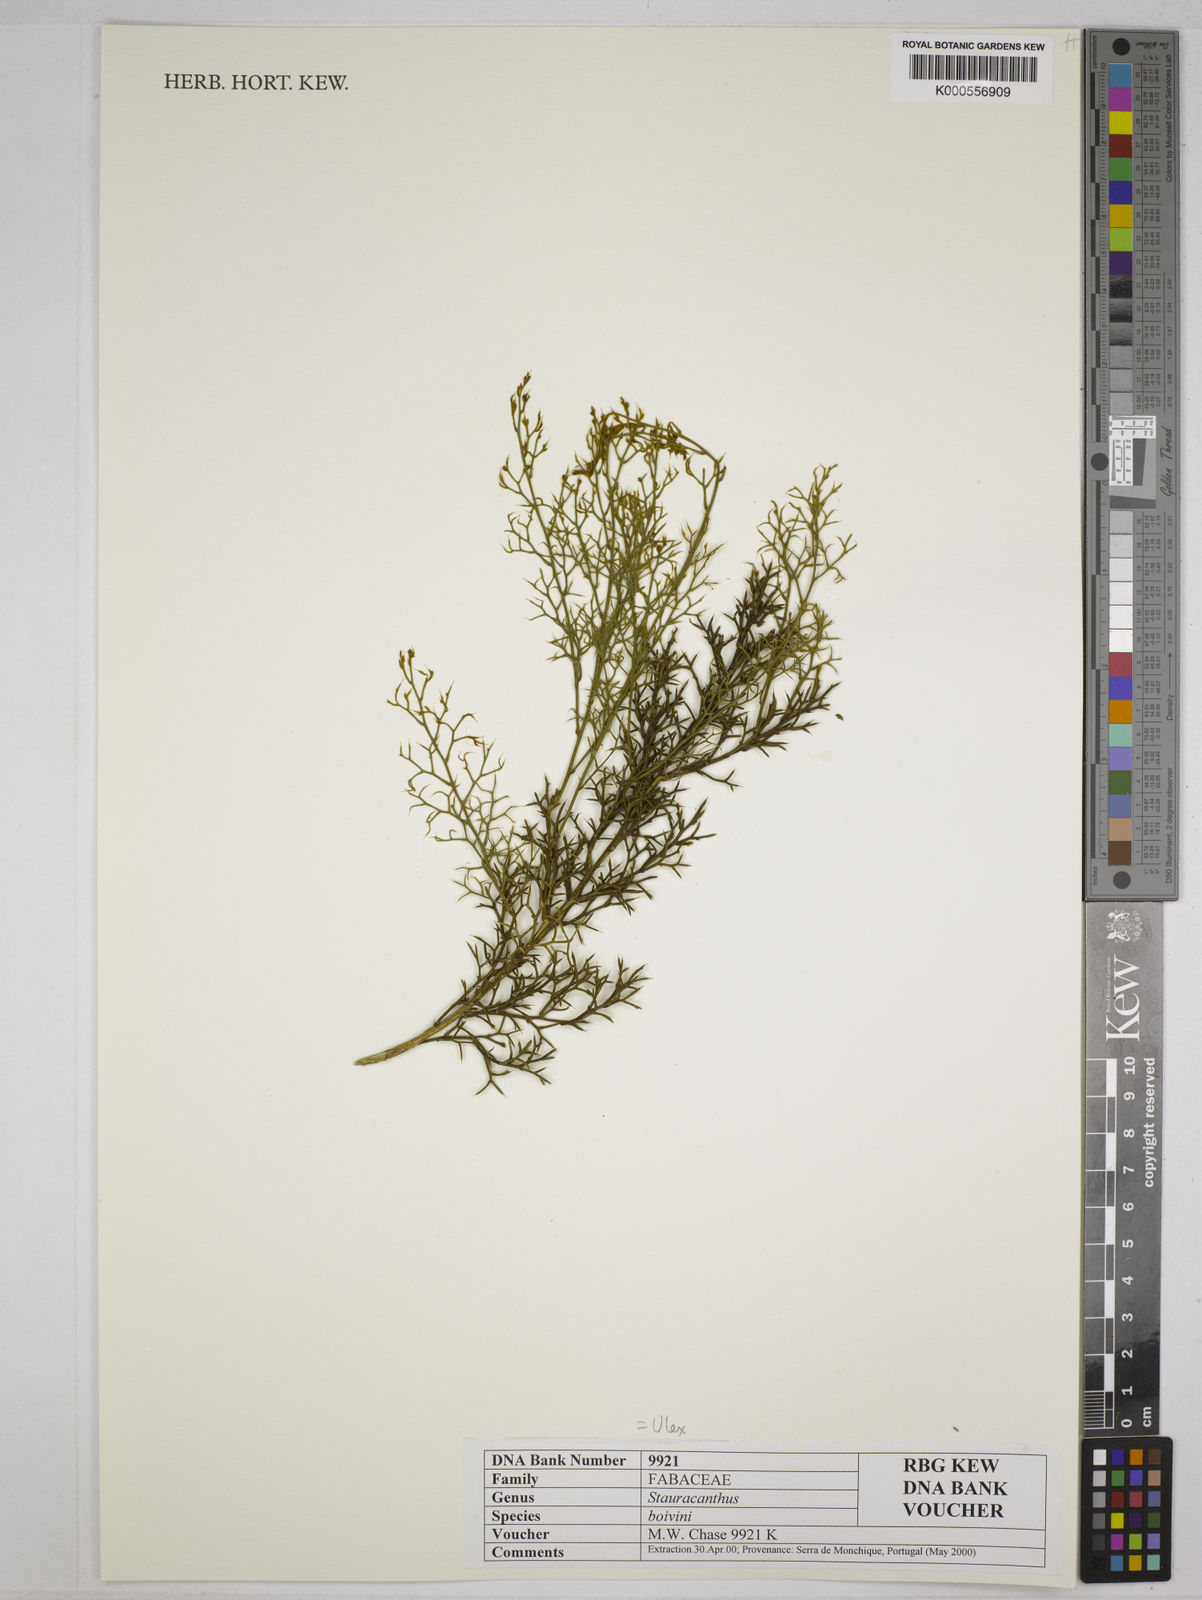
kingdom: Plantae
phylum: Tracheophyta
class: Magnoliopsida
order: Fabales
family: Fabaceae
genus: Stauracanthus
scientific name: Stauracanthus boivinii
